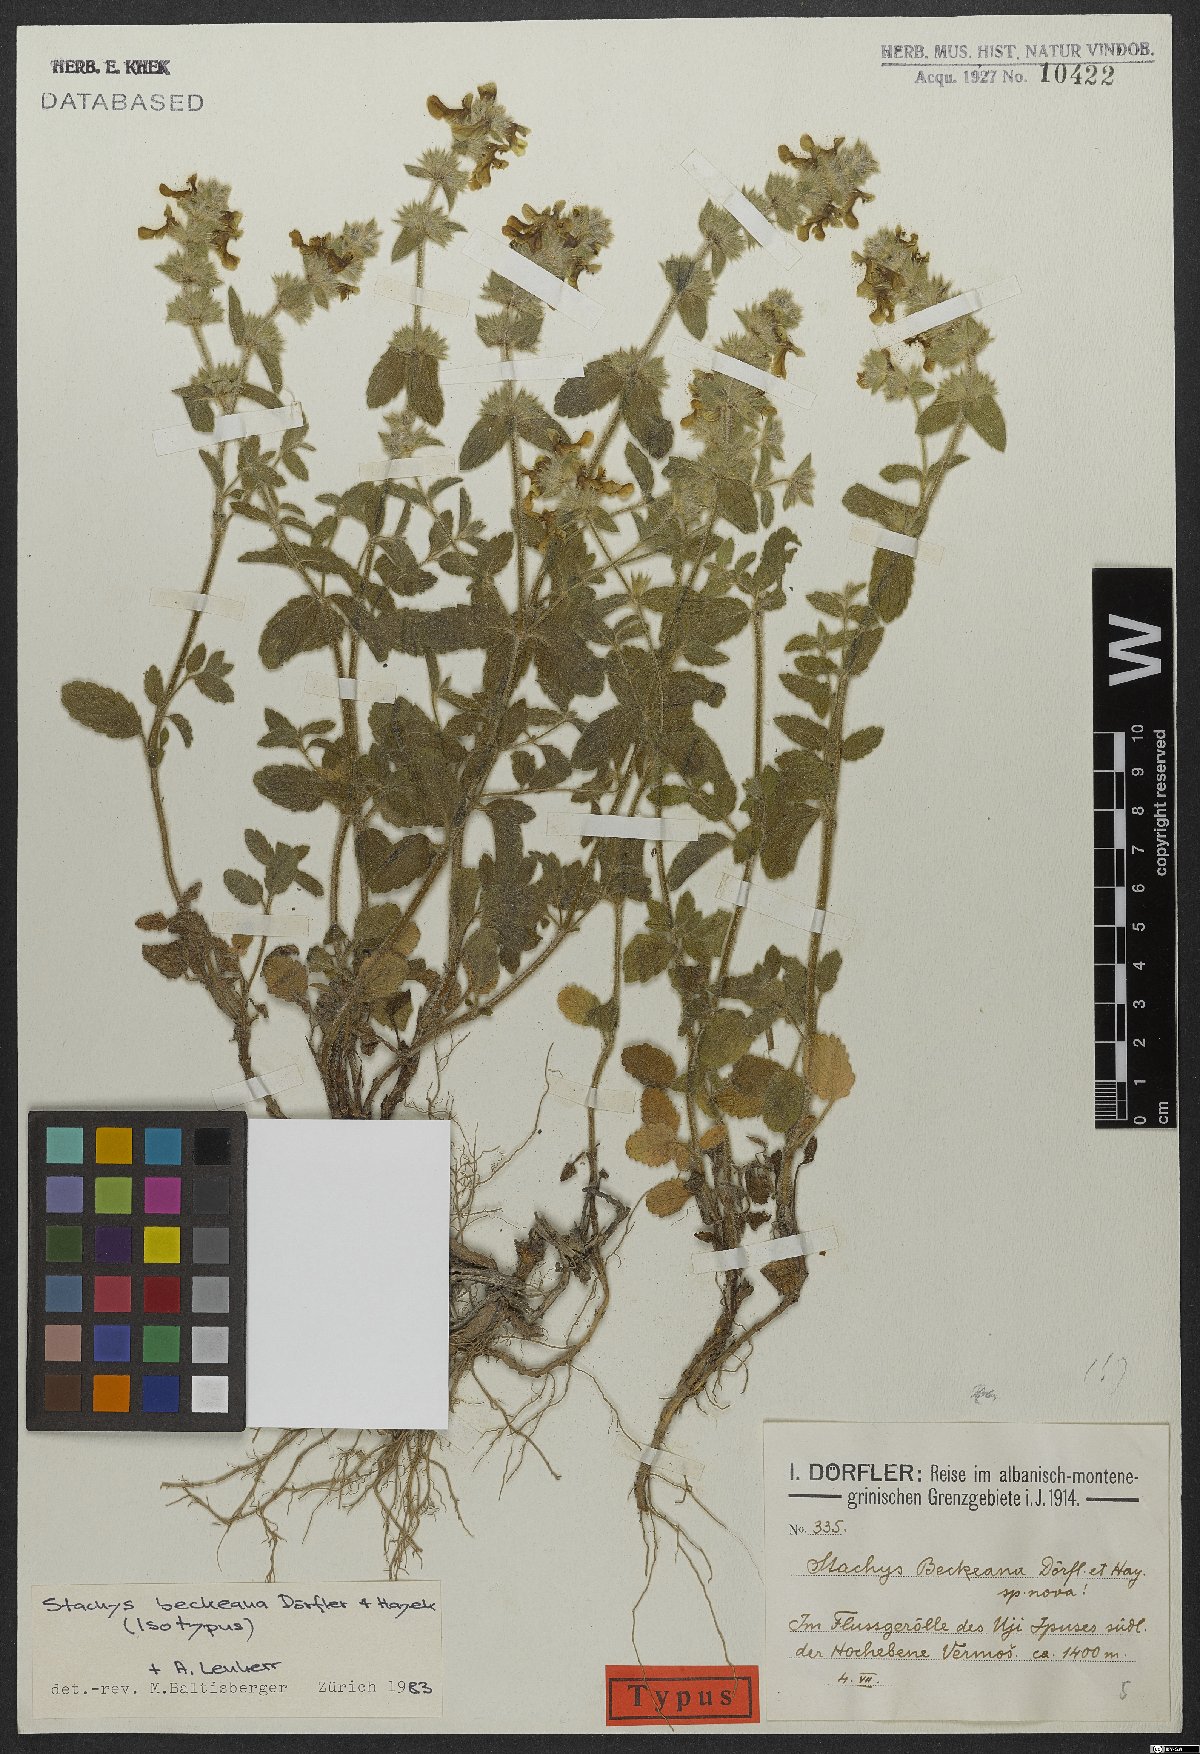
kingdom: Plantae
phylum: Tracheophyta
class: Magnoliopsida
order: Lamiales
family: Lamiaceae
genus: Stachys
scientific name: Stachys beckeana
